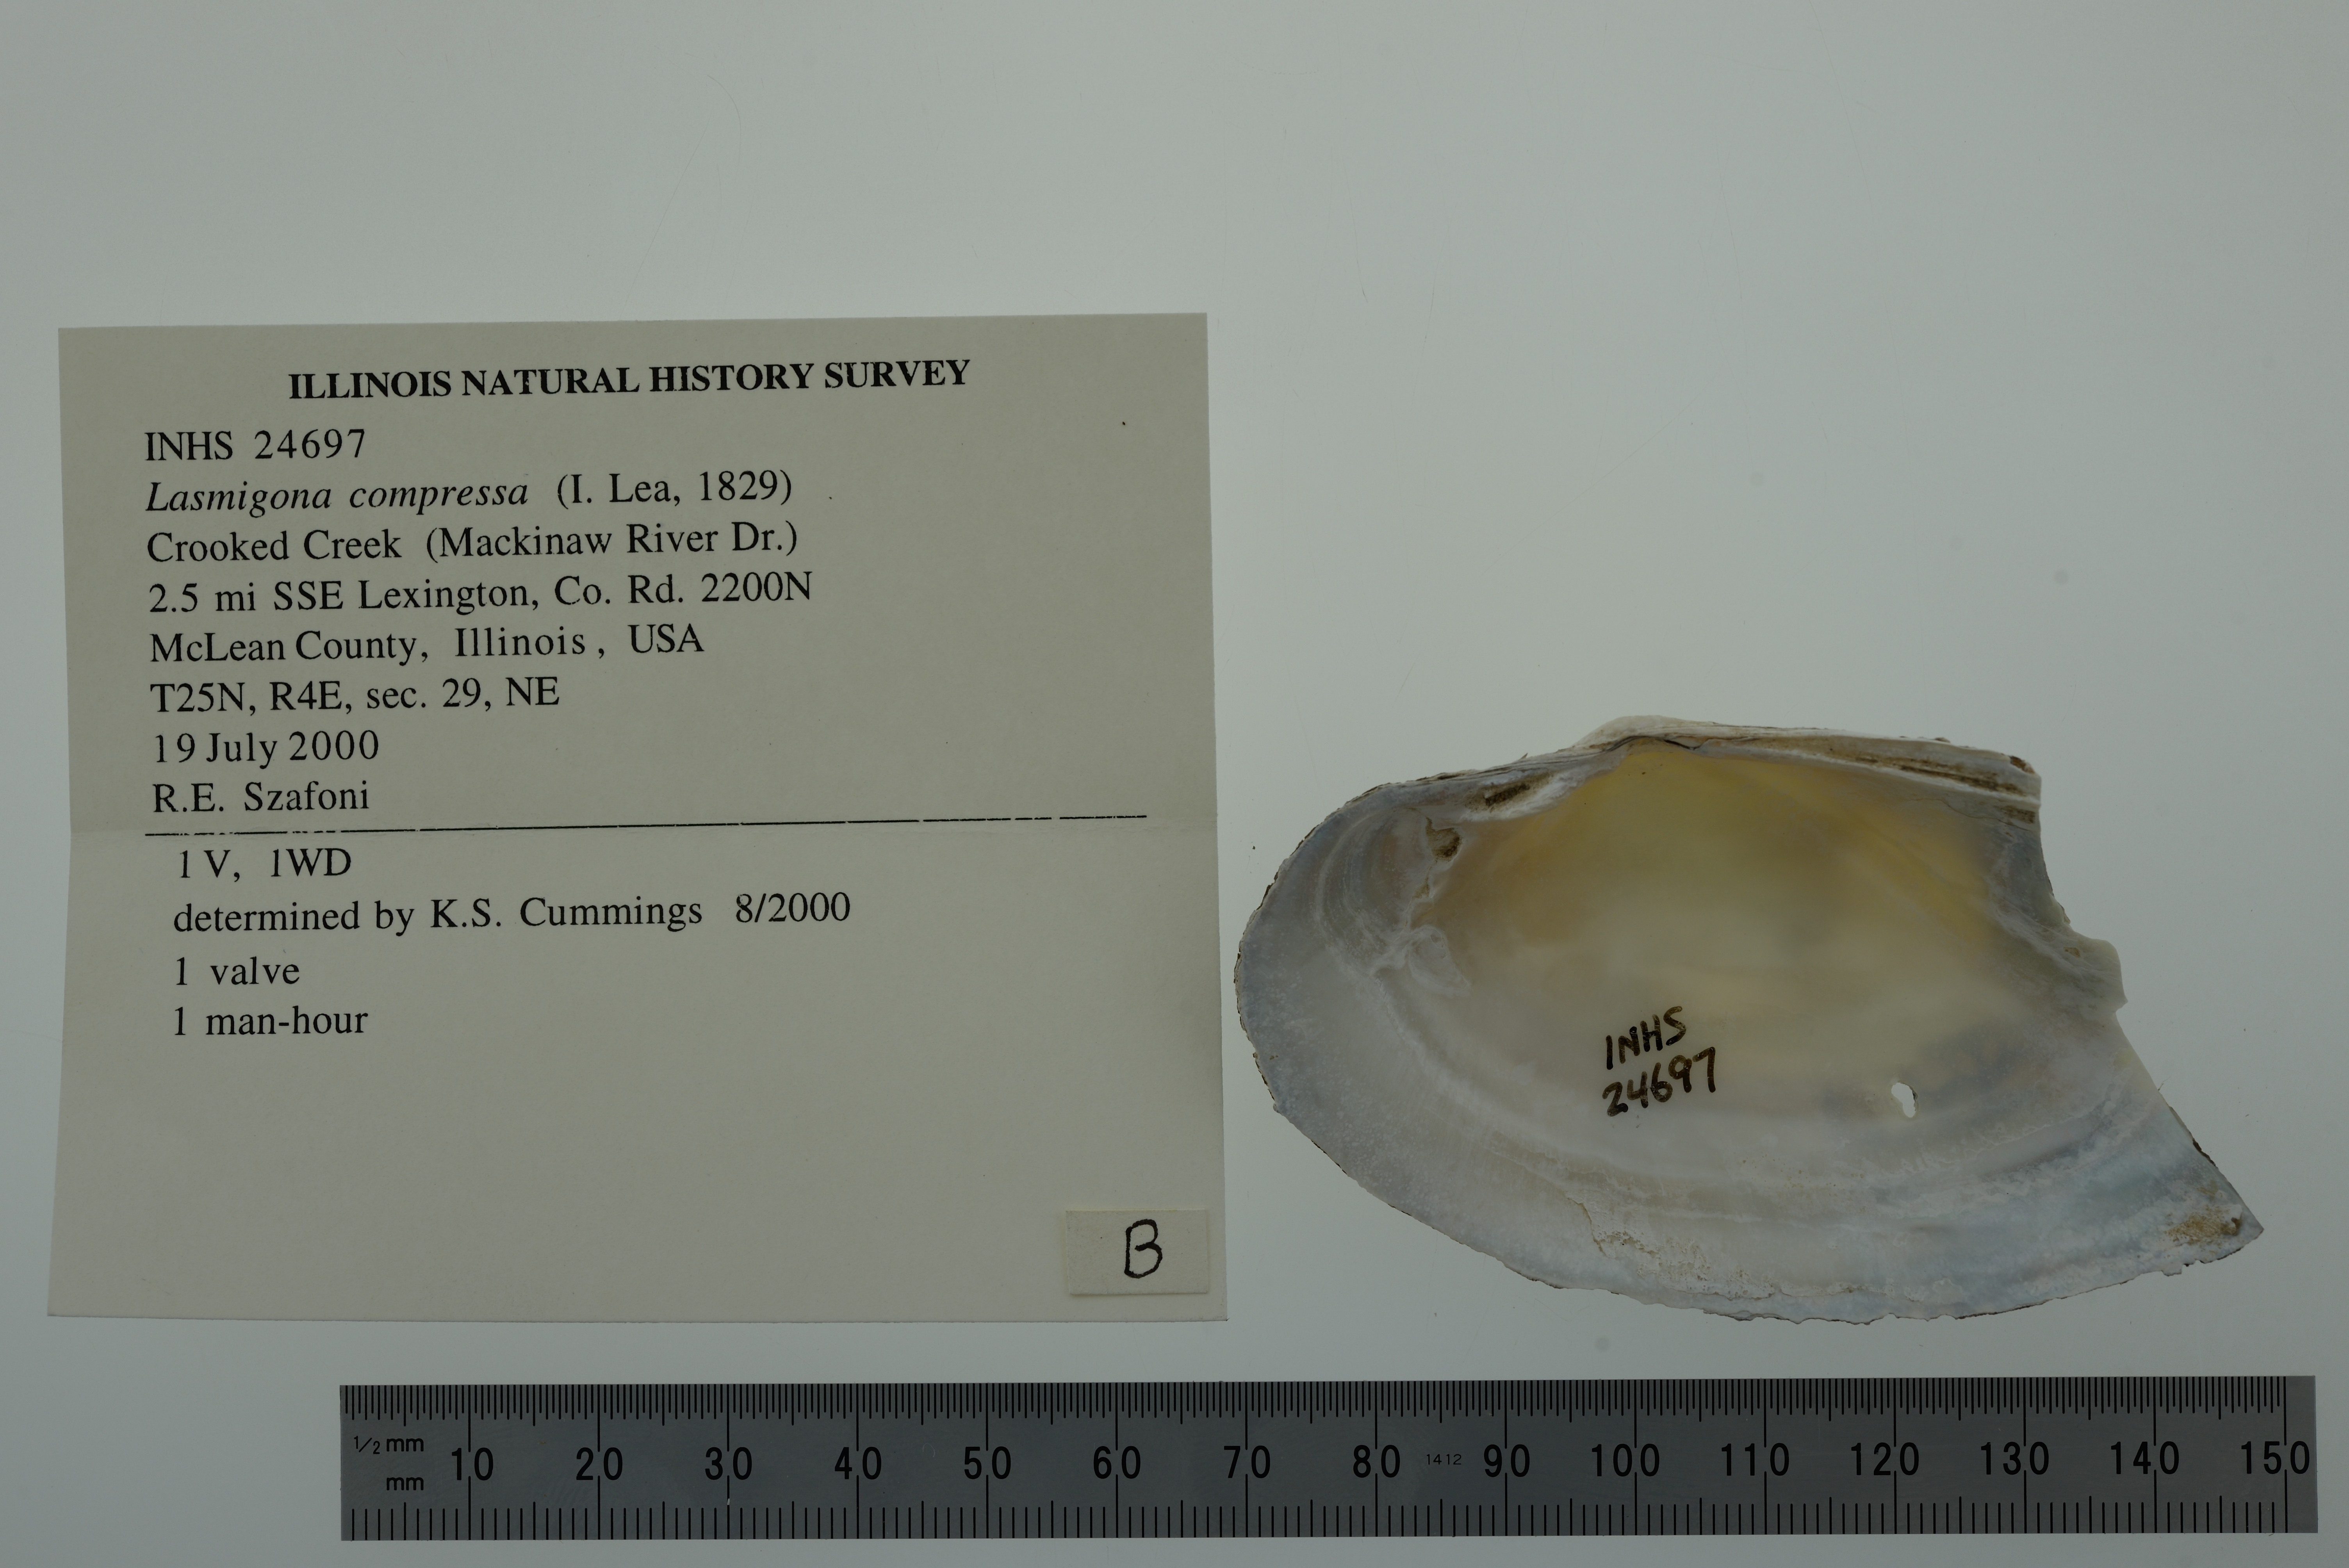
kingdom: Animalia
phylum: Mollusca
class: Bivalvia
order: Unionida
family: Unionidae
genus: Lasmigona
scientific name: Lasmigona compressa
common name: Creek heelsplitter
